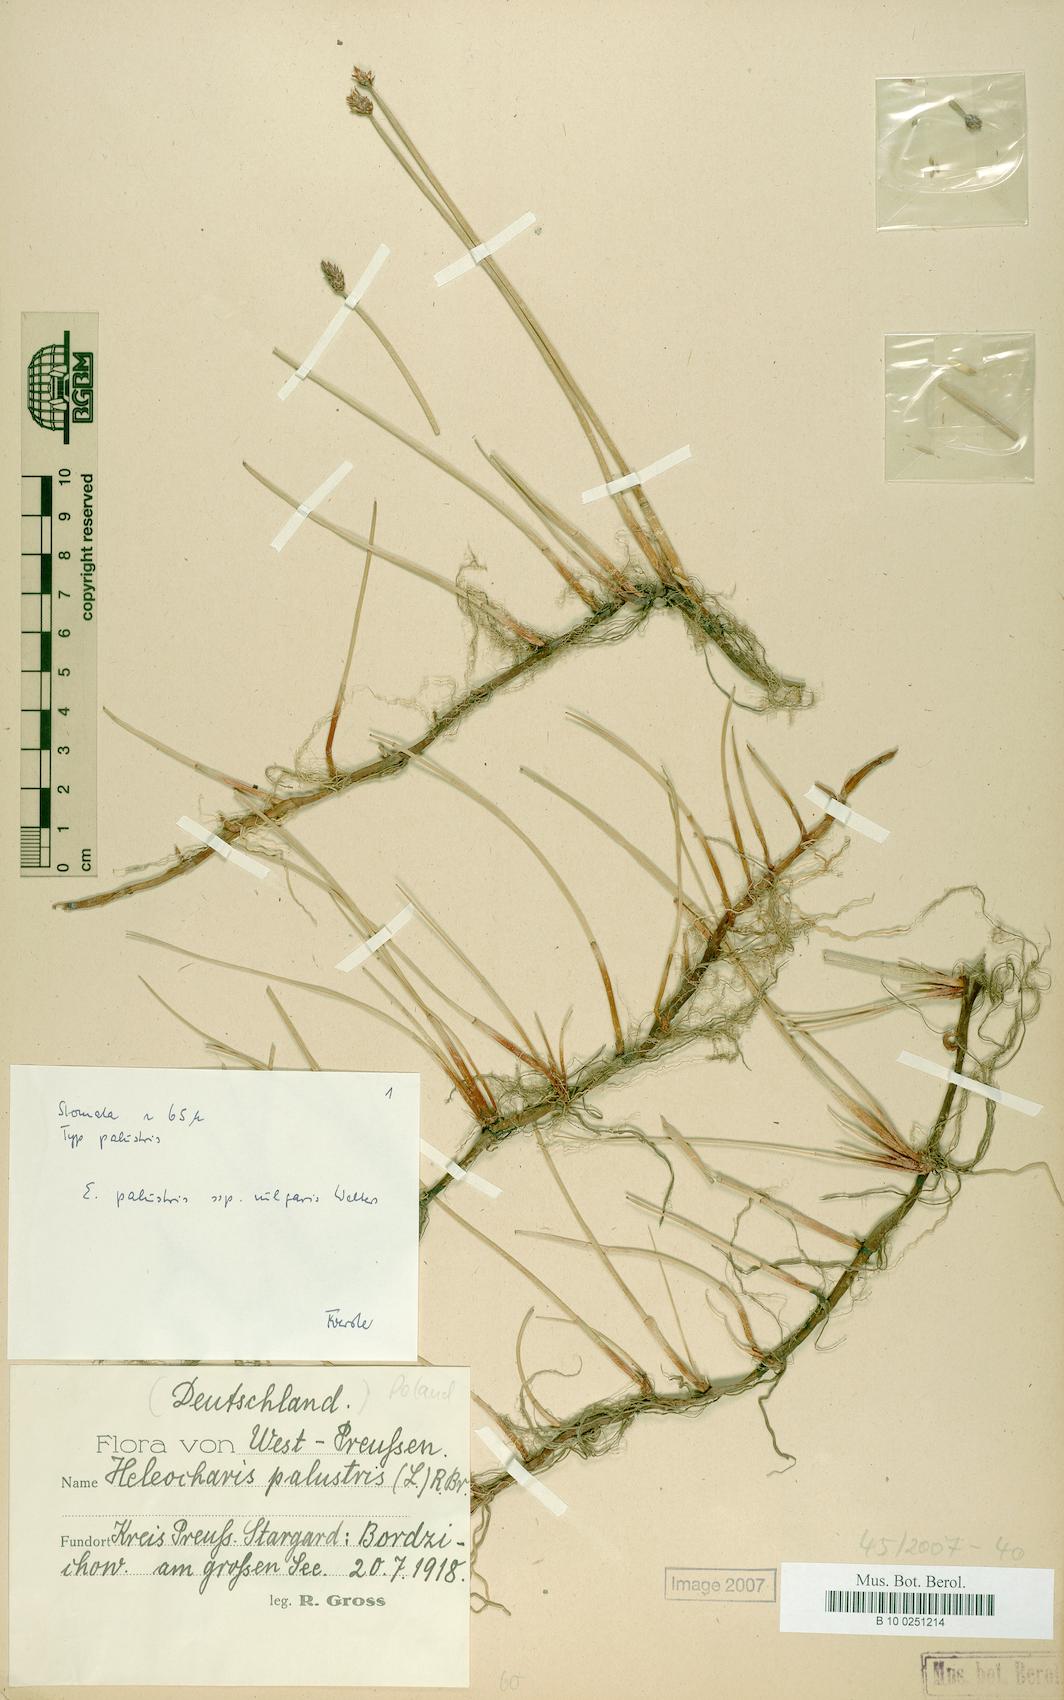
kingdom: Plantae
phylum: Tracheophyta
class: Liliopsida
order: Poales
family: Cyperaceae
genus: Eleocharis
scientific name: Eleocharis palustris
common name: Common spike-rush
